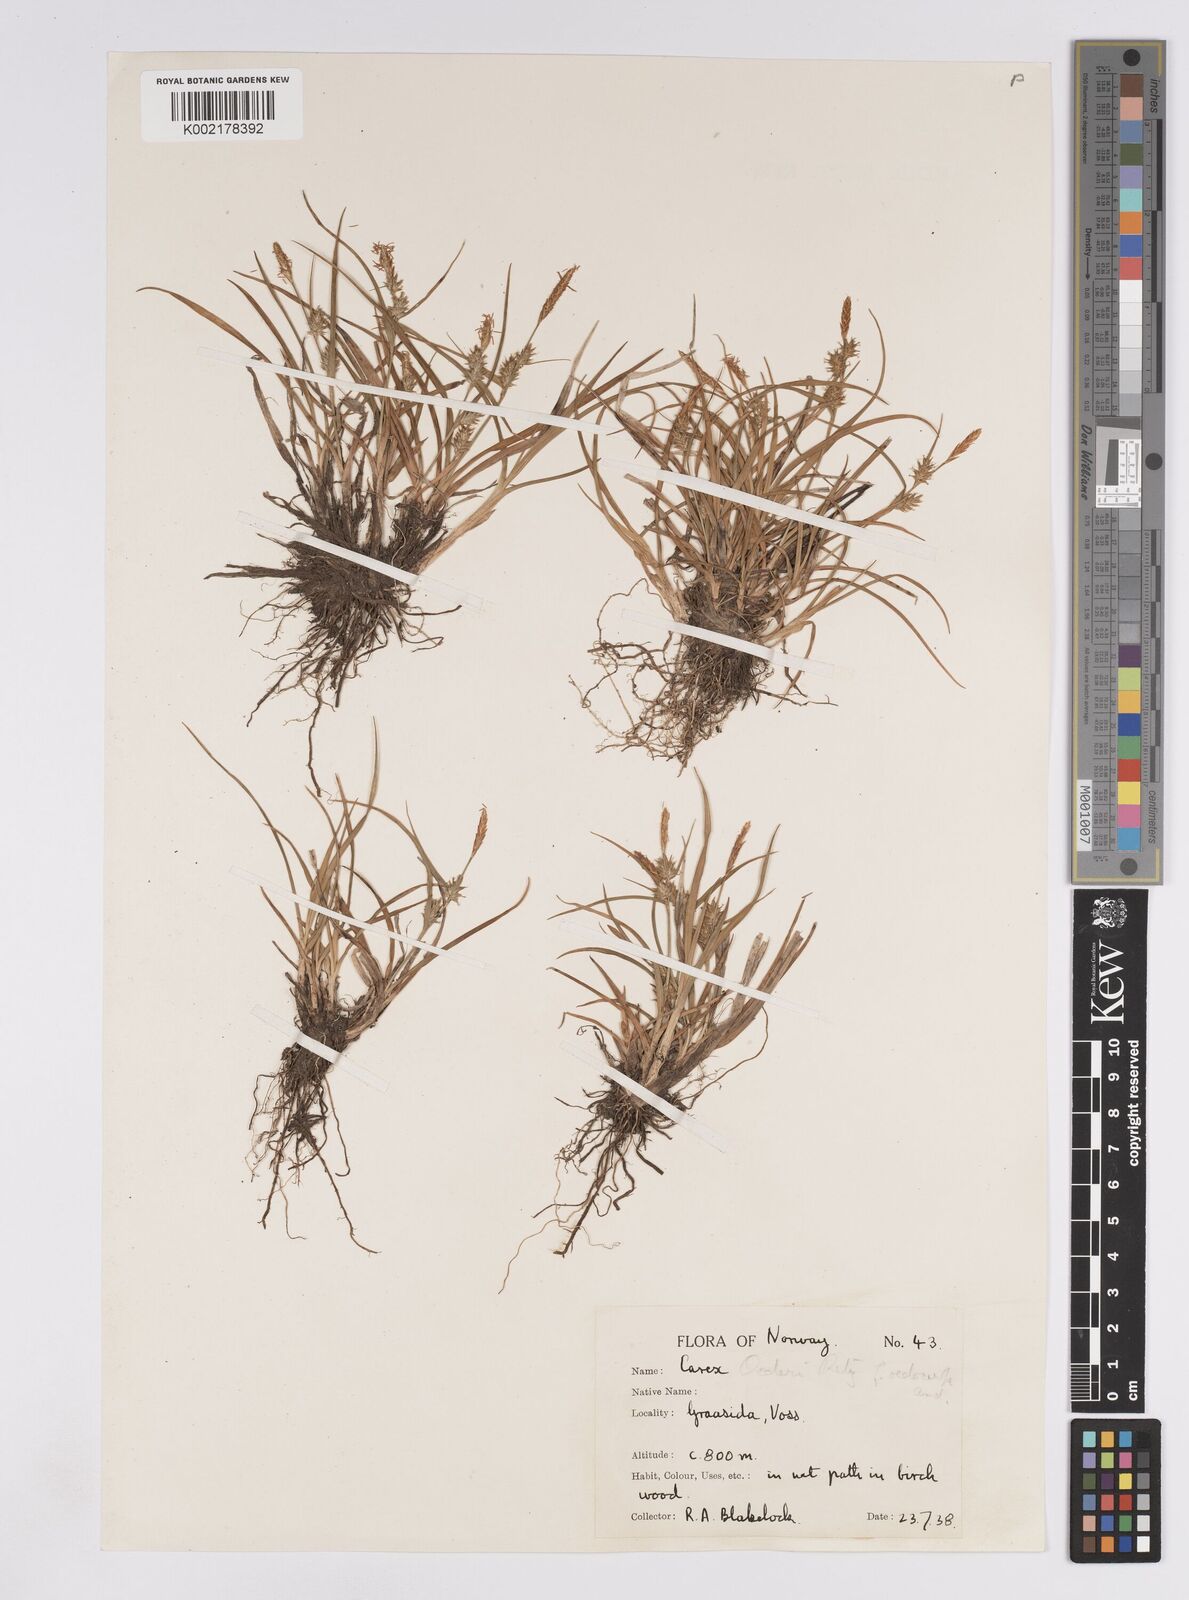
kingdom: Plantae
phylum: Tracheophyta
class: Liliopsida
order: Poales
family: Cyperaceae
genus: Carex
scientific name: Carex demissa
